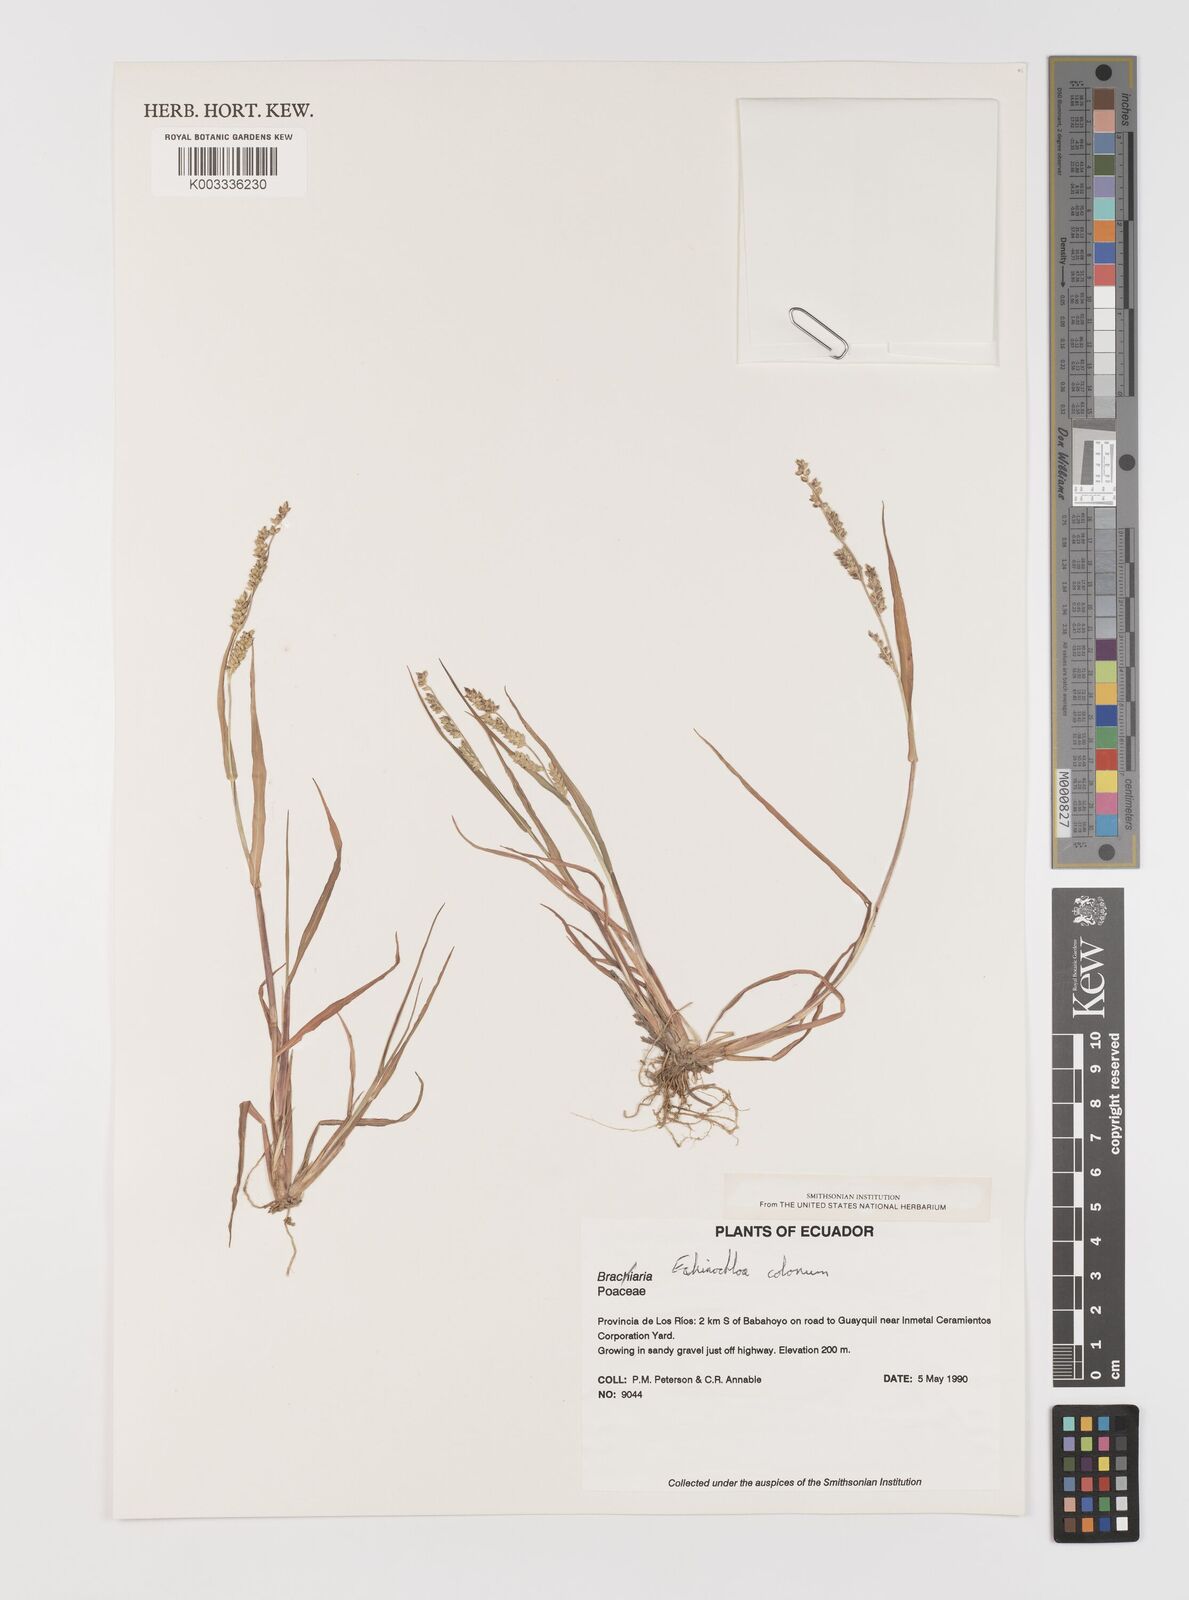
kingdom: Plantae
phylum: Tracheophyta
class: Liliopsida
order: Poales
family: Poaceae
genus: Echinochloa
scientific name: Echinochloa colonum
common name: Jungle rice
